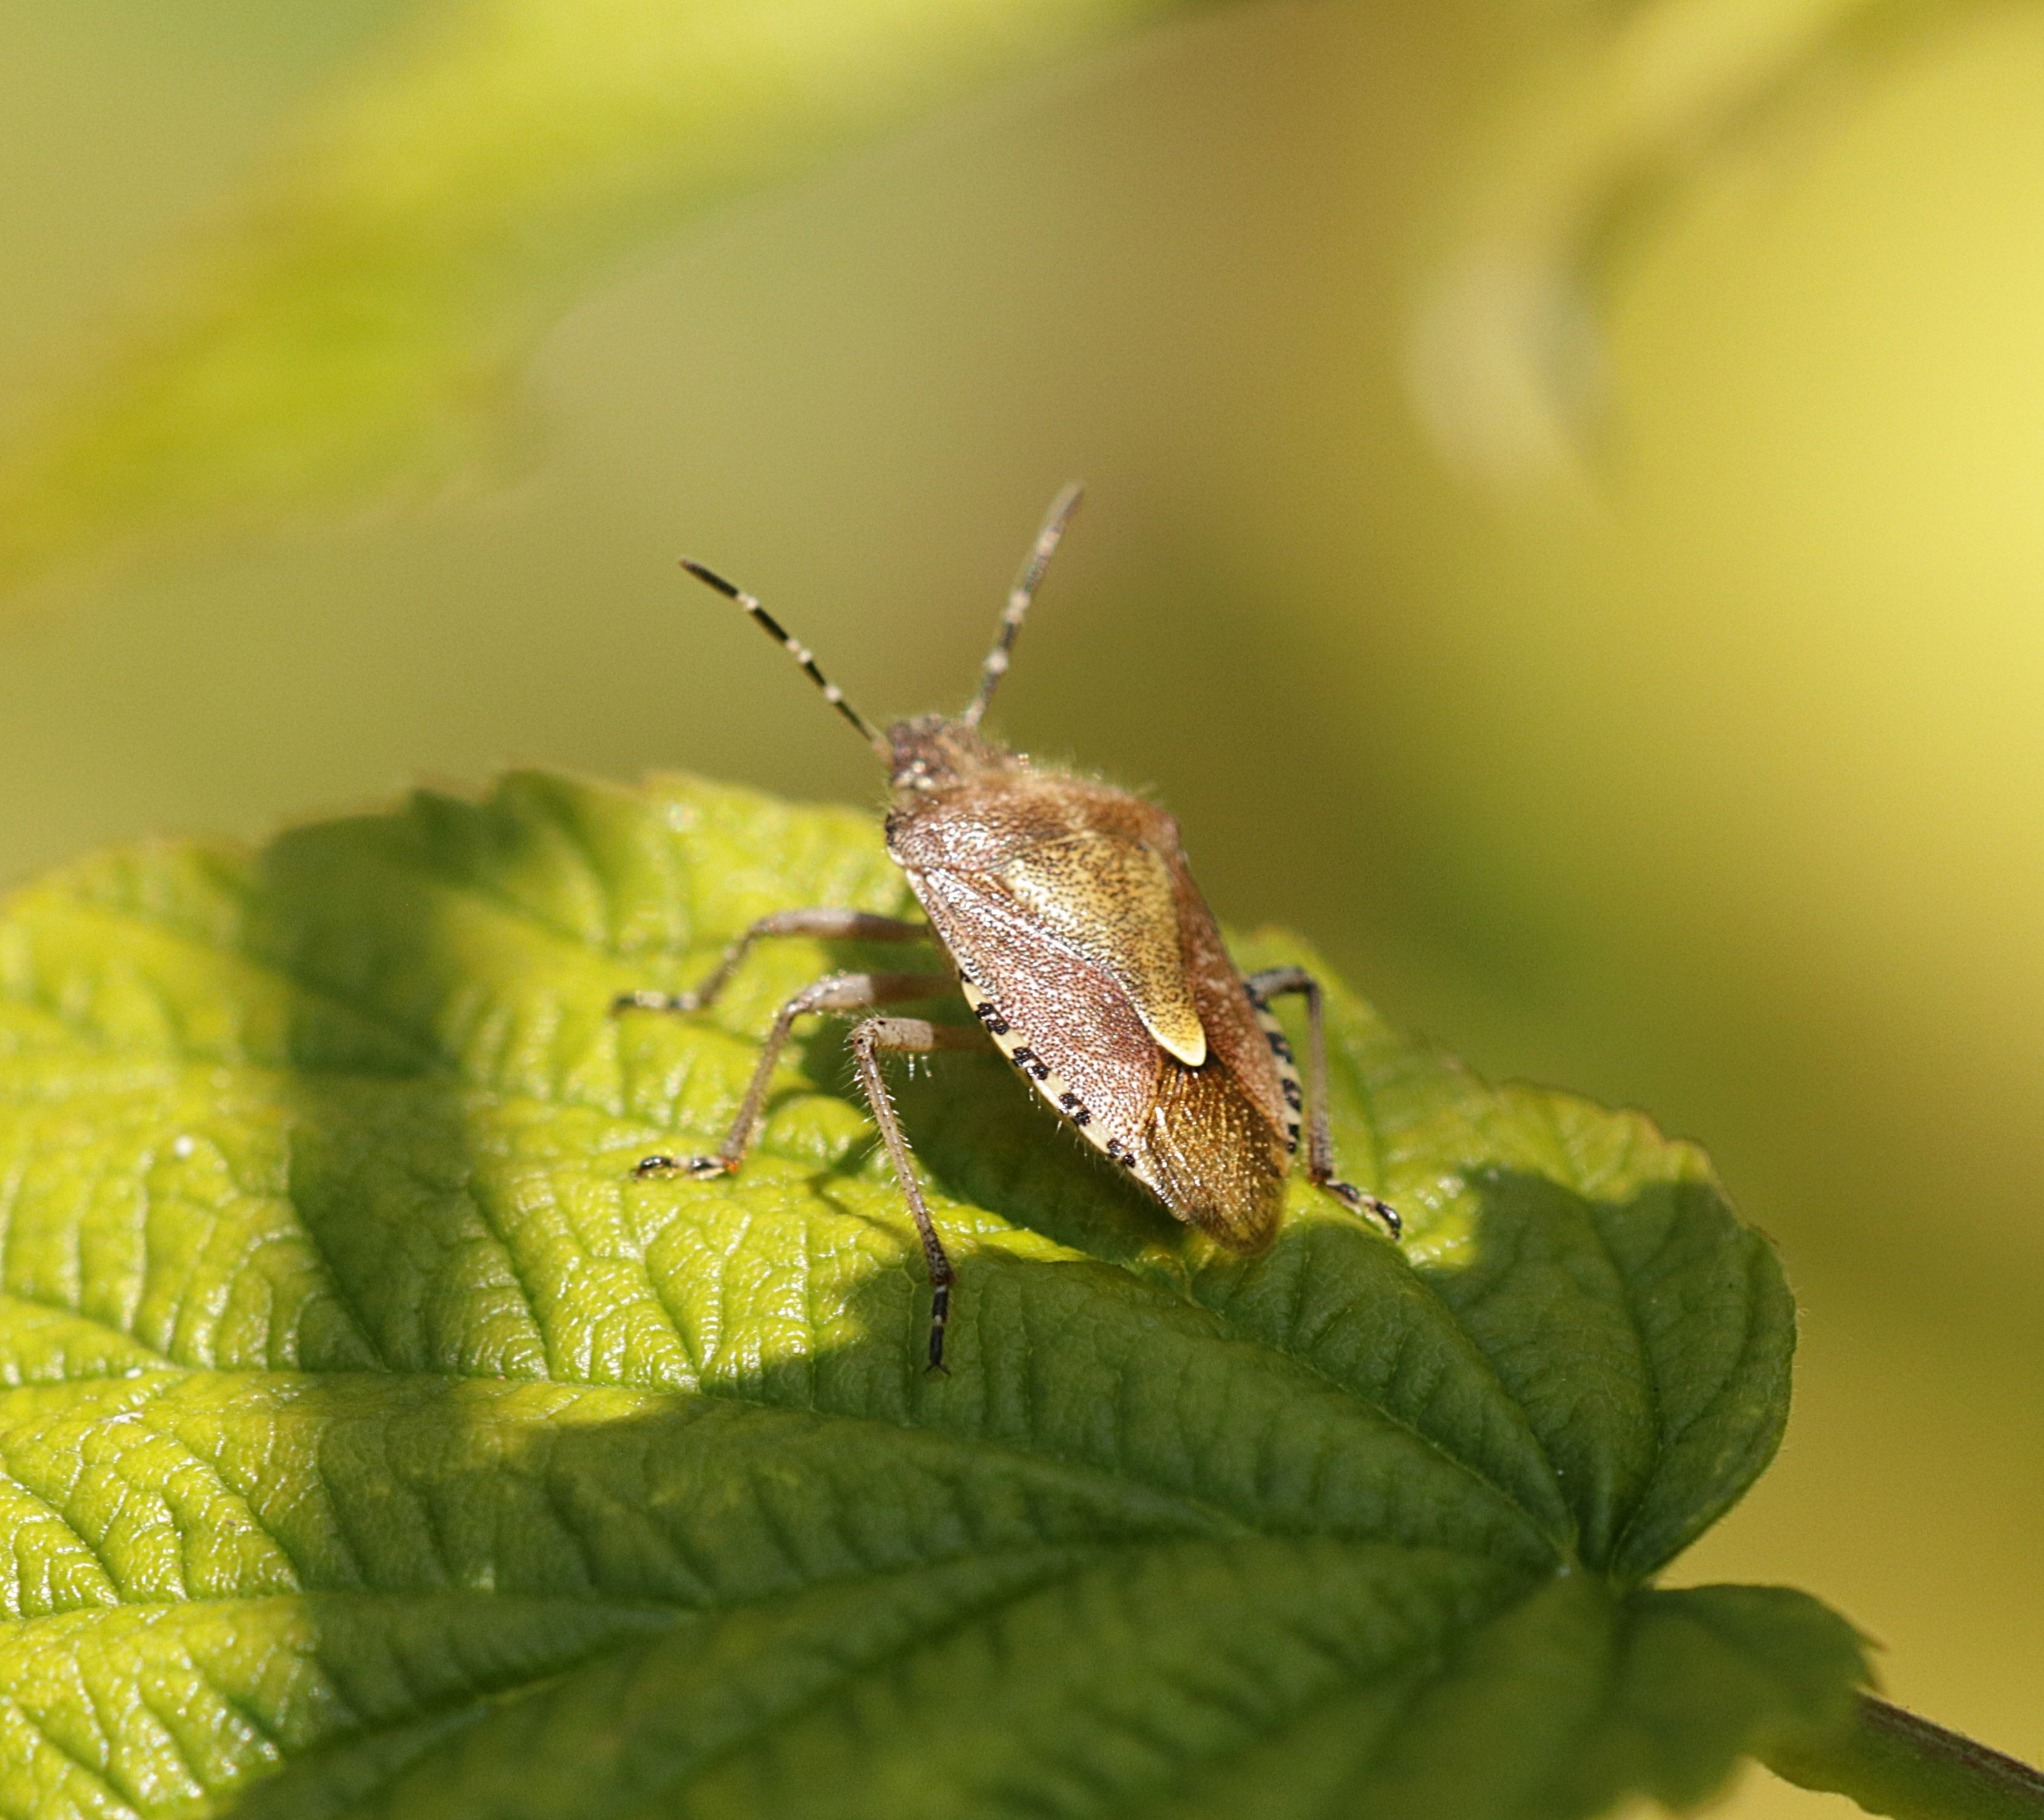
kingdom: Animalia
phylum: Arthropoda
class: Insecta
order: Hemiptera
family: Pentatomidae
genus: Dolycoris
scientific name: Dolycoris baccarum
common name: Almindelig bærtæge
